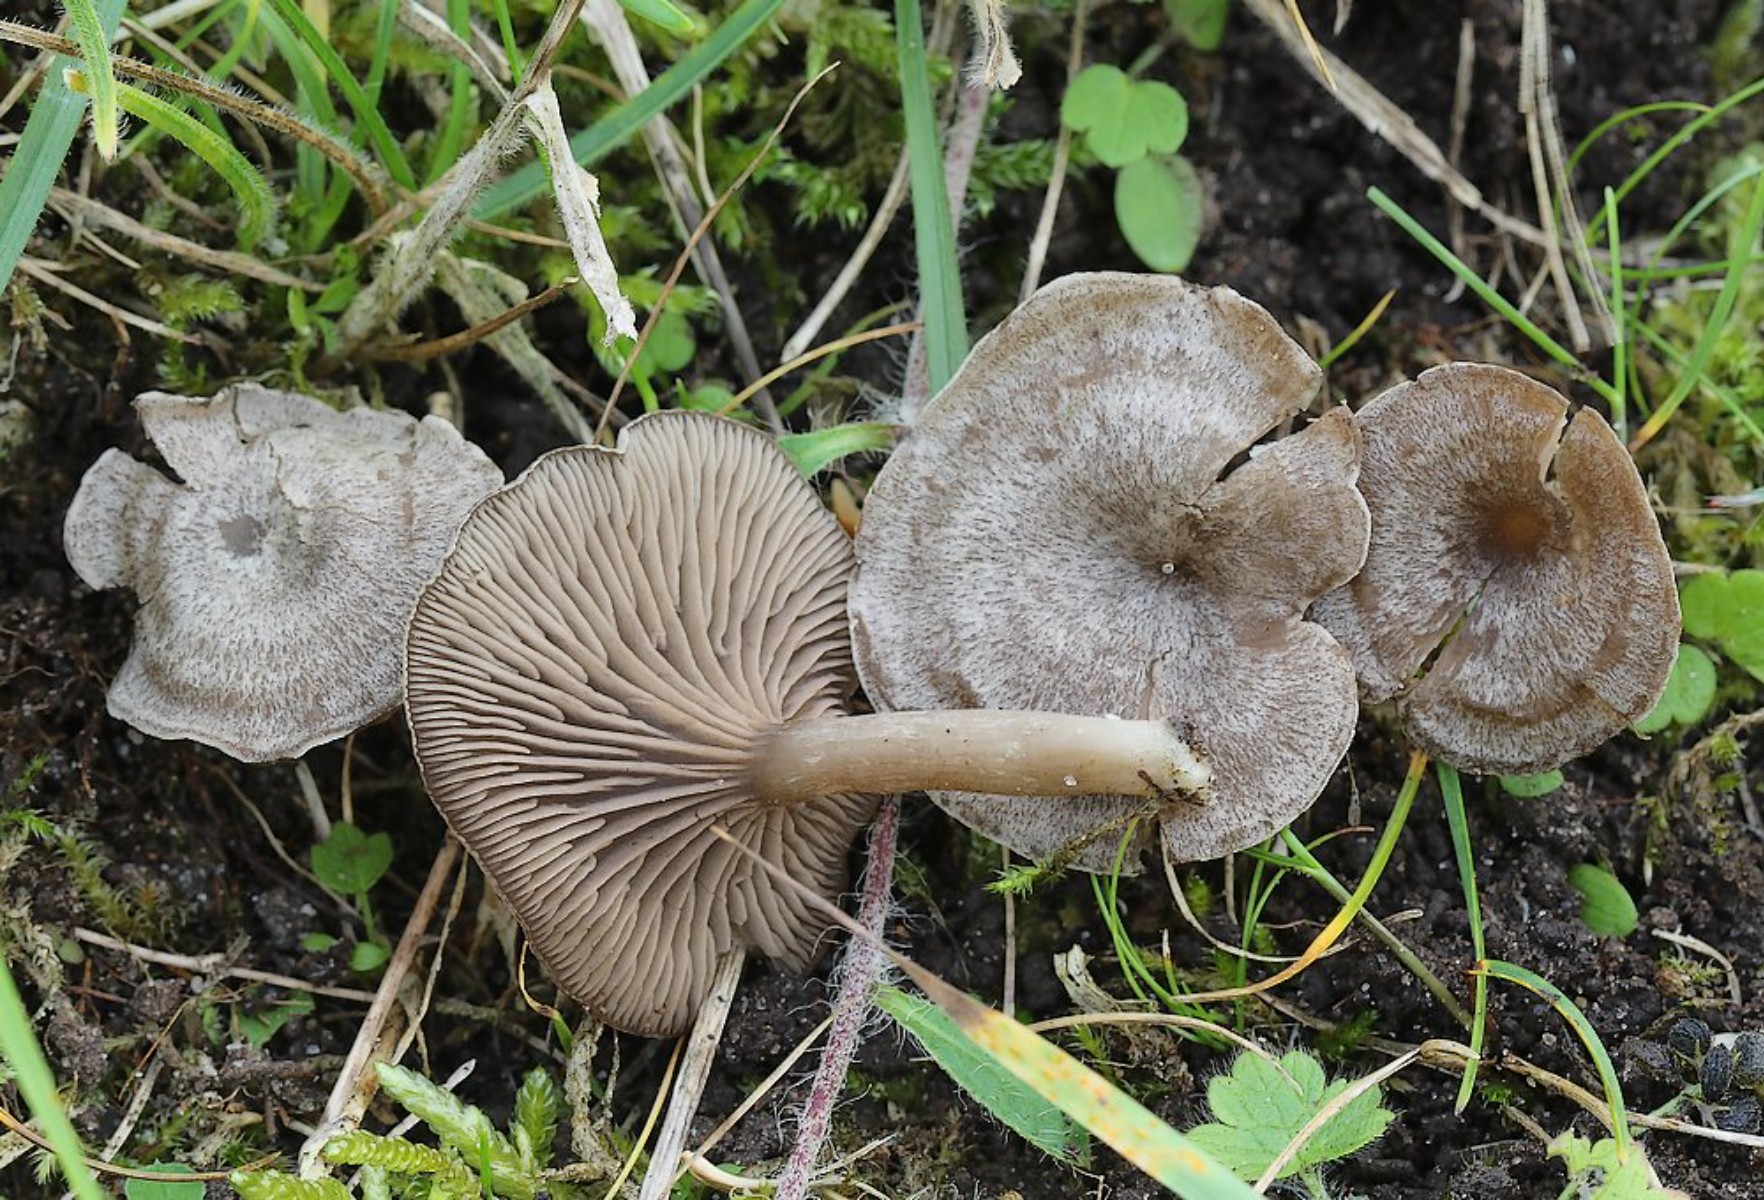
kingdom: Fungi
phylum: Basidiomycota
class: Agaricomycetes
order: Agaricales
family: Entolomataceae
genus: Entoloma
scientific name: Entoloma undatum
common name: bæltet rødblad
